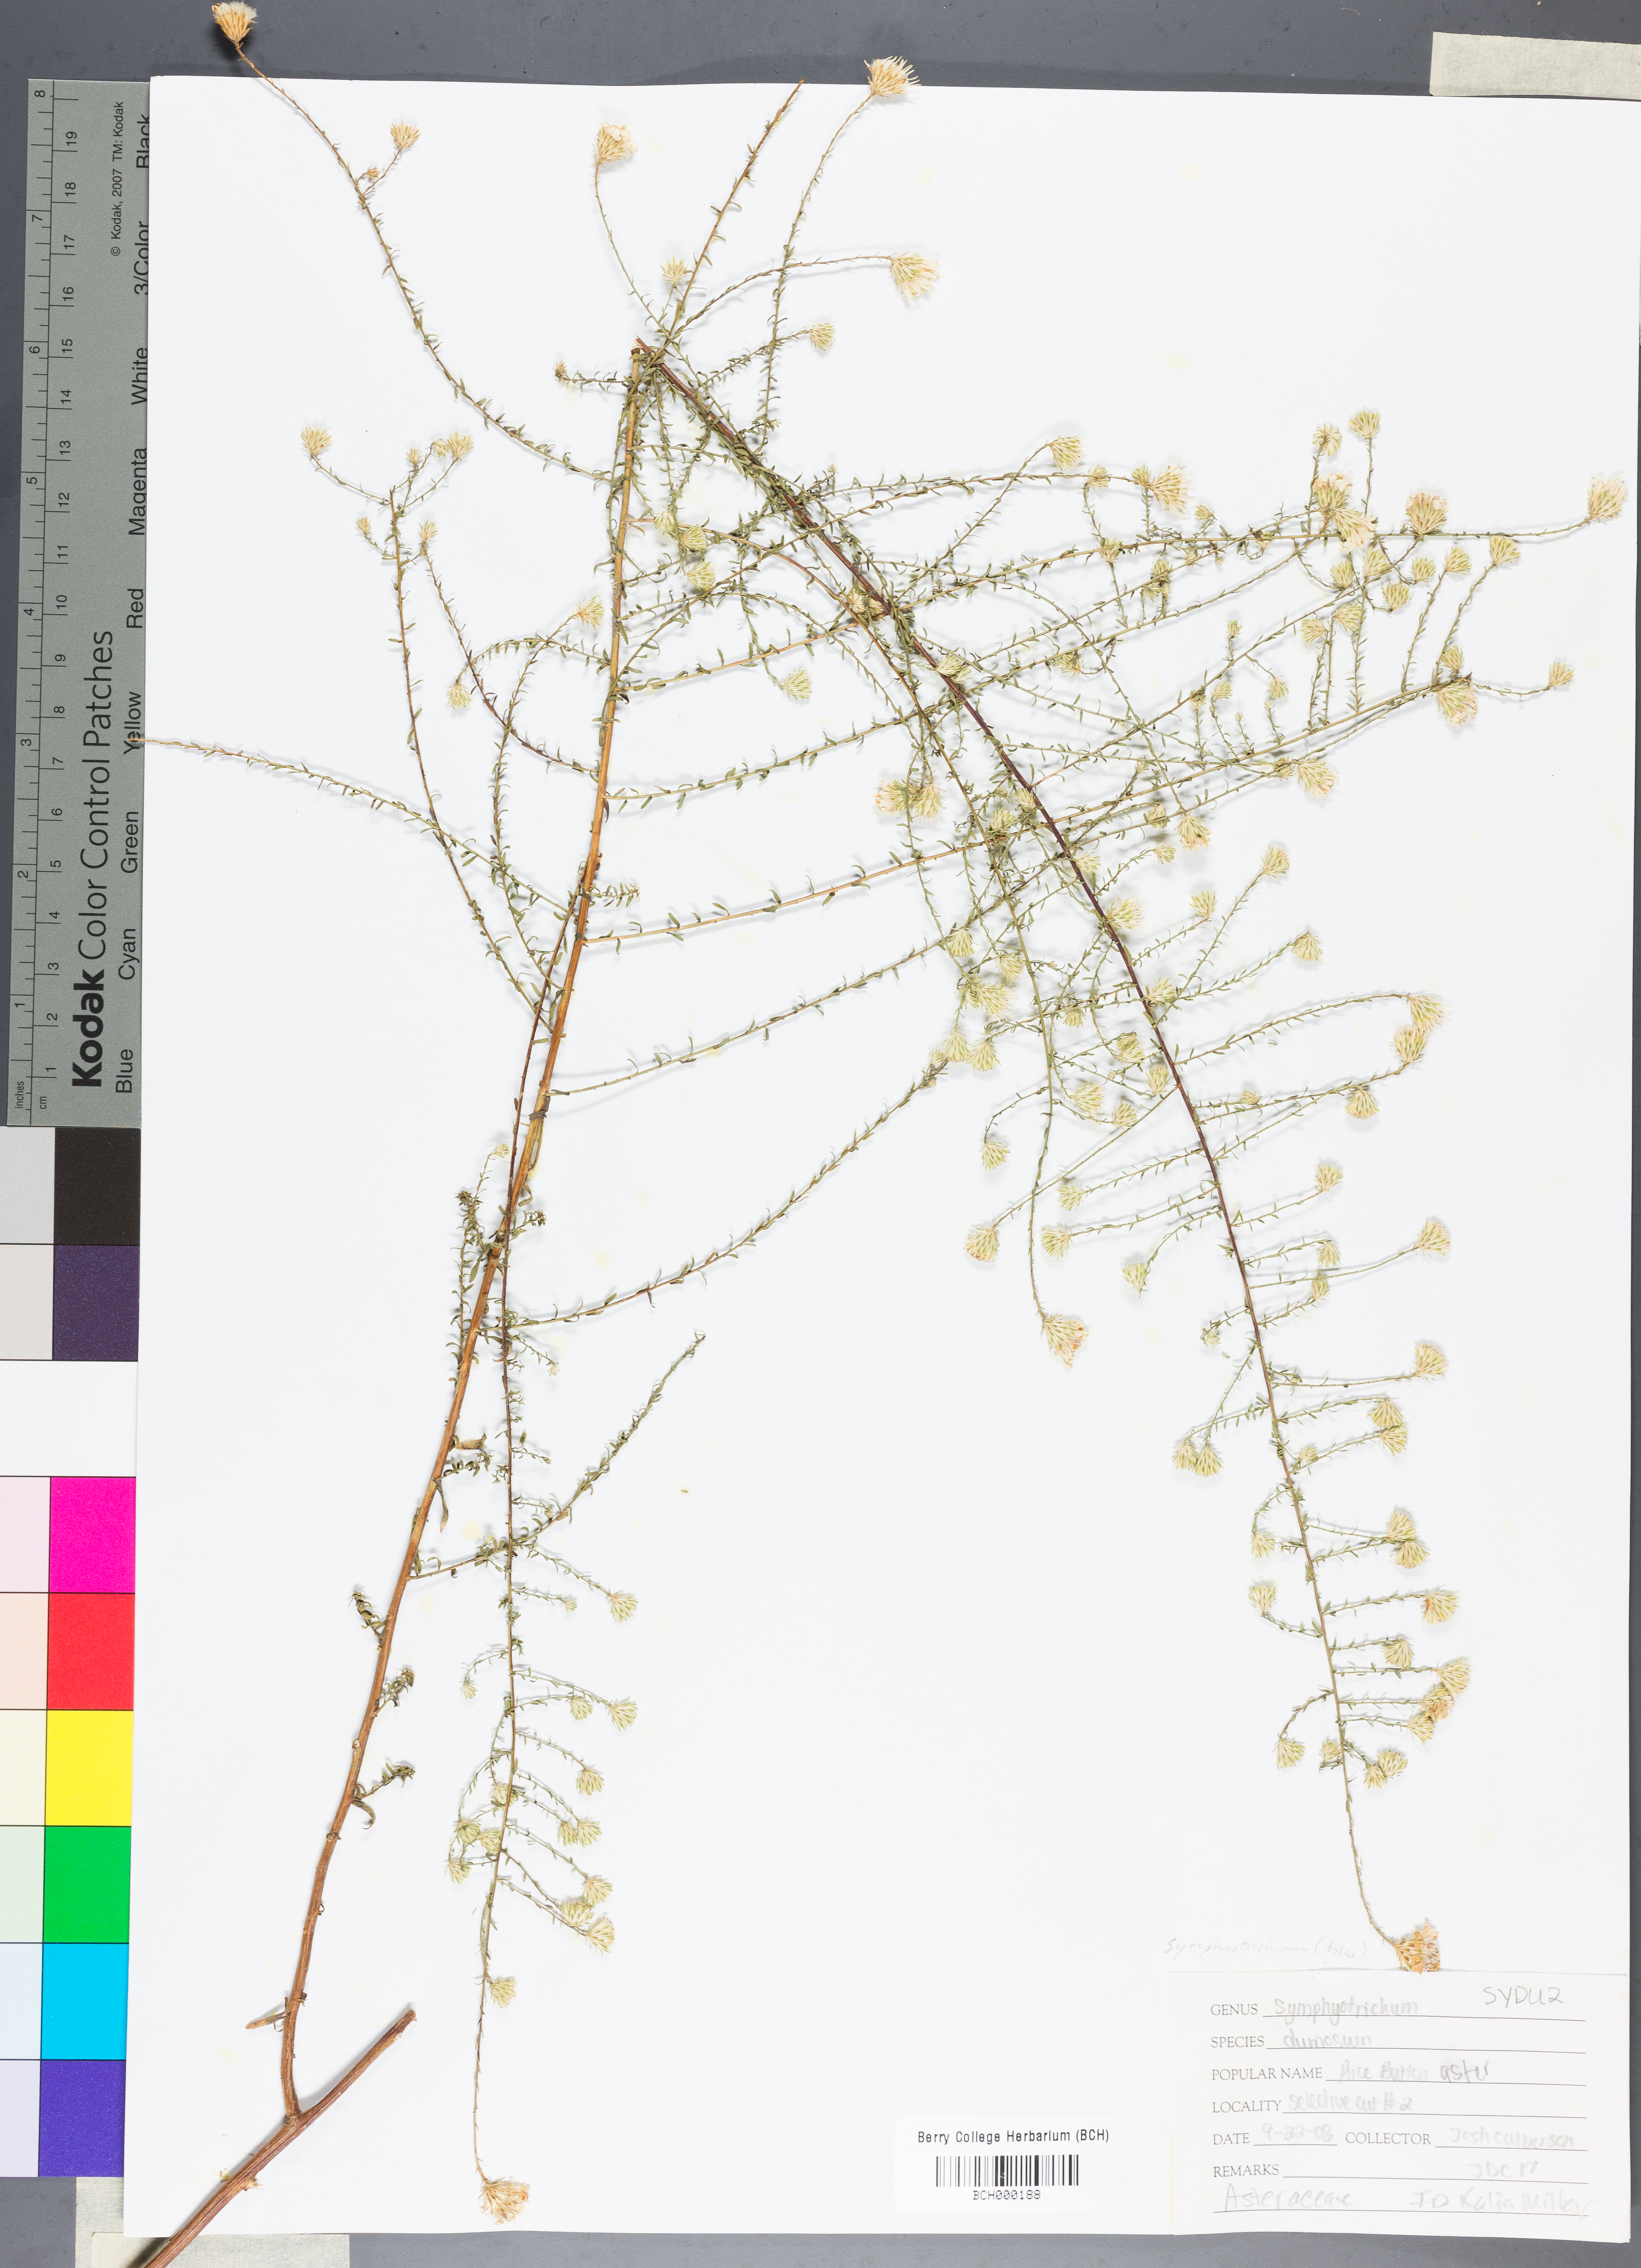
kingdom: Plantae
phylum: Tracheophyta
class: Magnoliopsida
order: Asterales
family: Asteraceae
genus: Symphyotrichum
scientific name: Symphyotrichum dumosum
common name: Bushy aster
